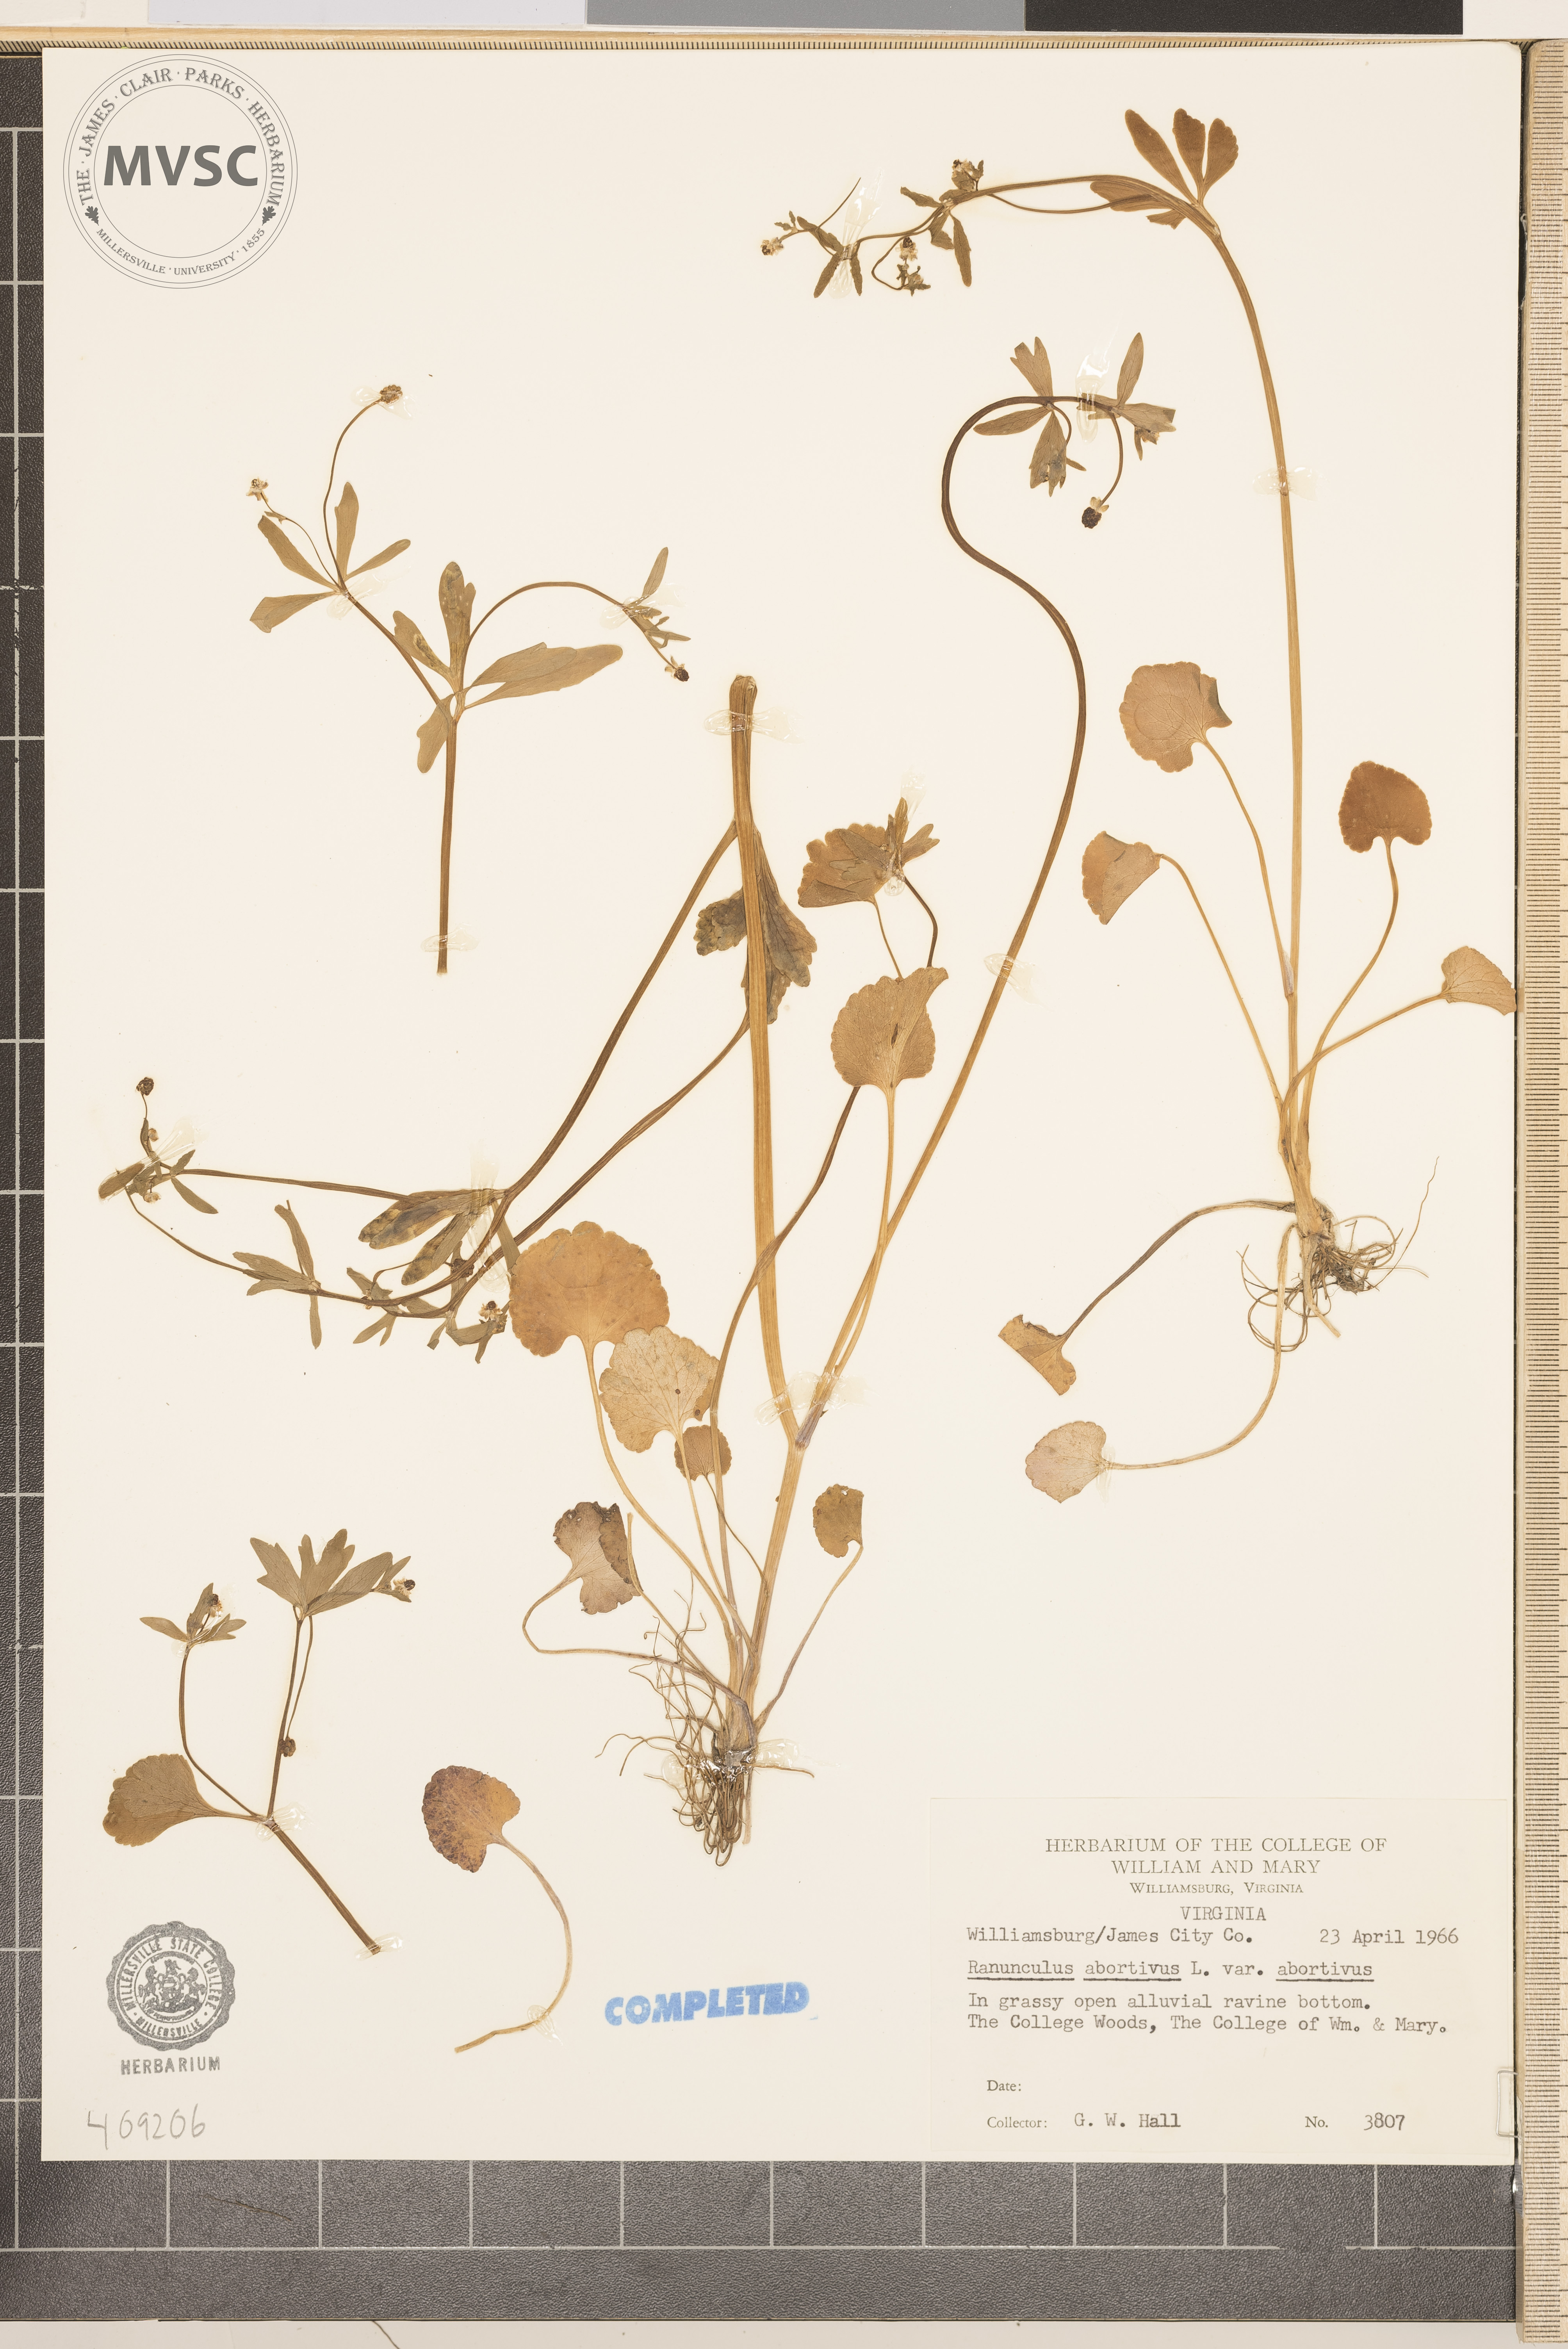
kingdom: Plantae
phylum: Tracheophyta
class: Magnoliopsida
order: Ranunculales
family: Ranunculaceae
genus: Ranunculus
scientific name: Ranunculus abortivus
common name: Early wood buttercup
